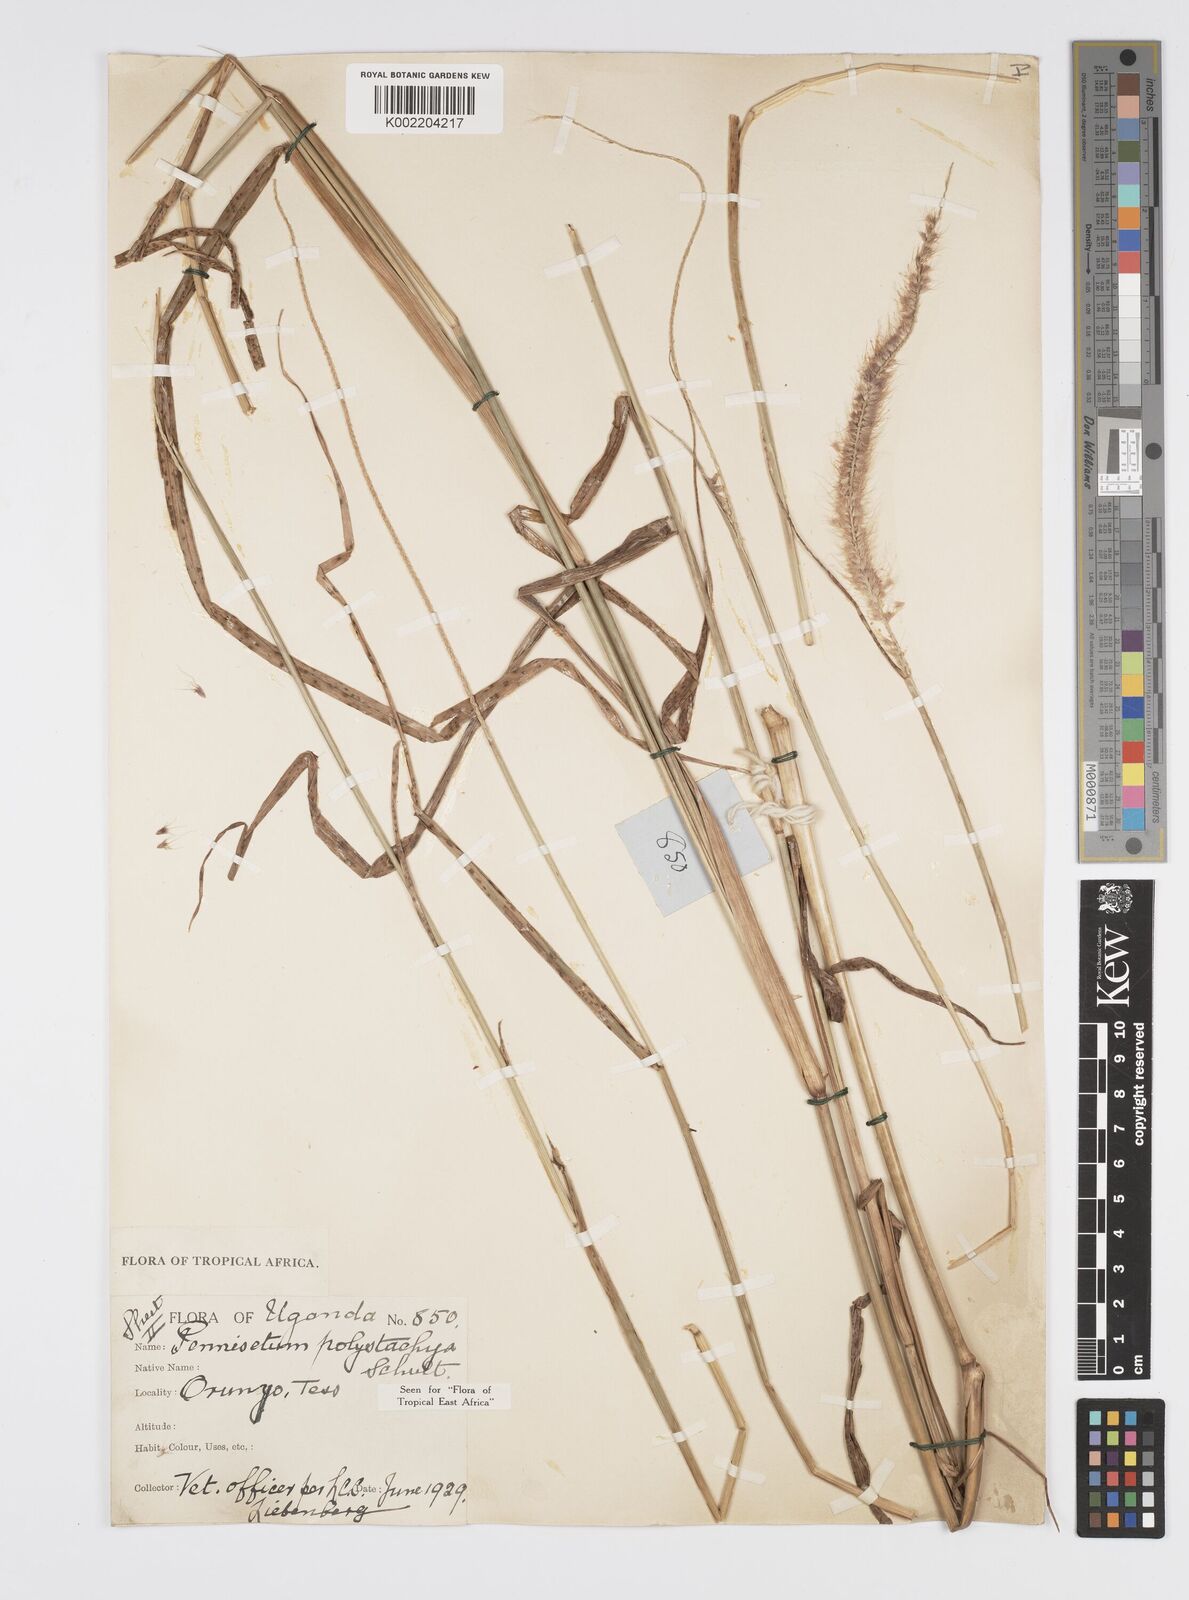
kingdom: Plantae
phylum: Tracheophyta
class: Liliopsida
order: Poales
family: Poaceae
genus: Setaria
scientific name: Setaria parviflora
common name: Knotroot bristle-grass
